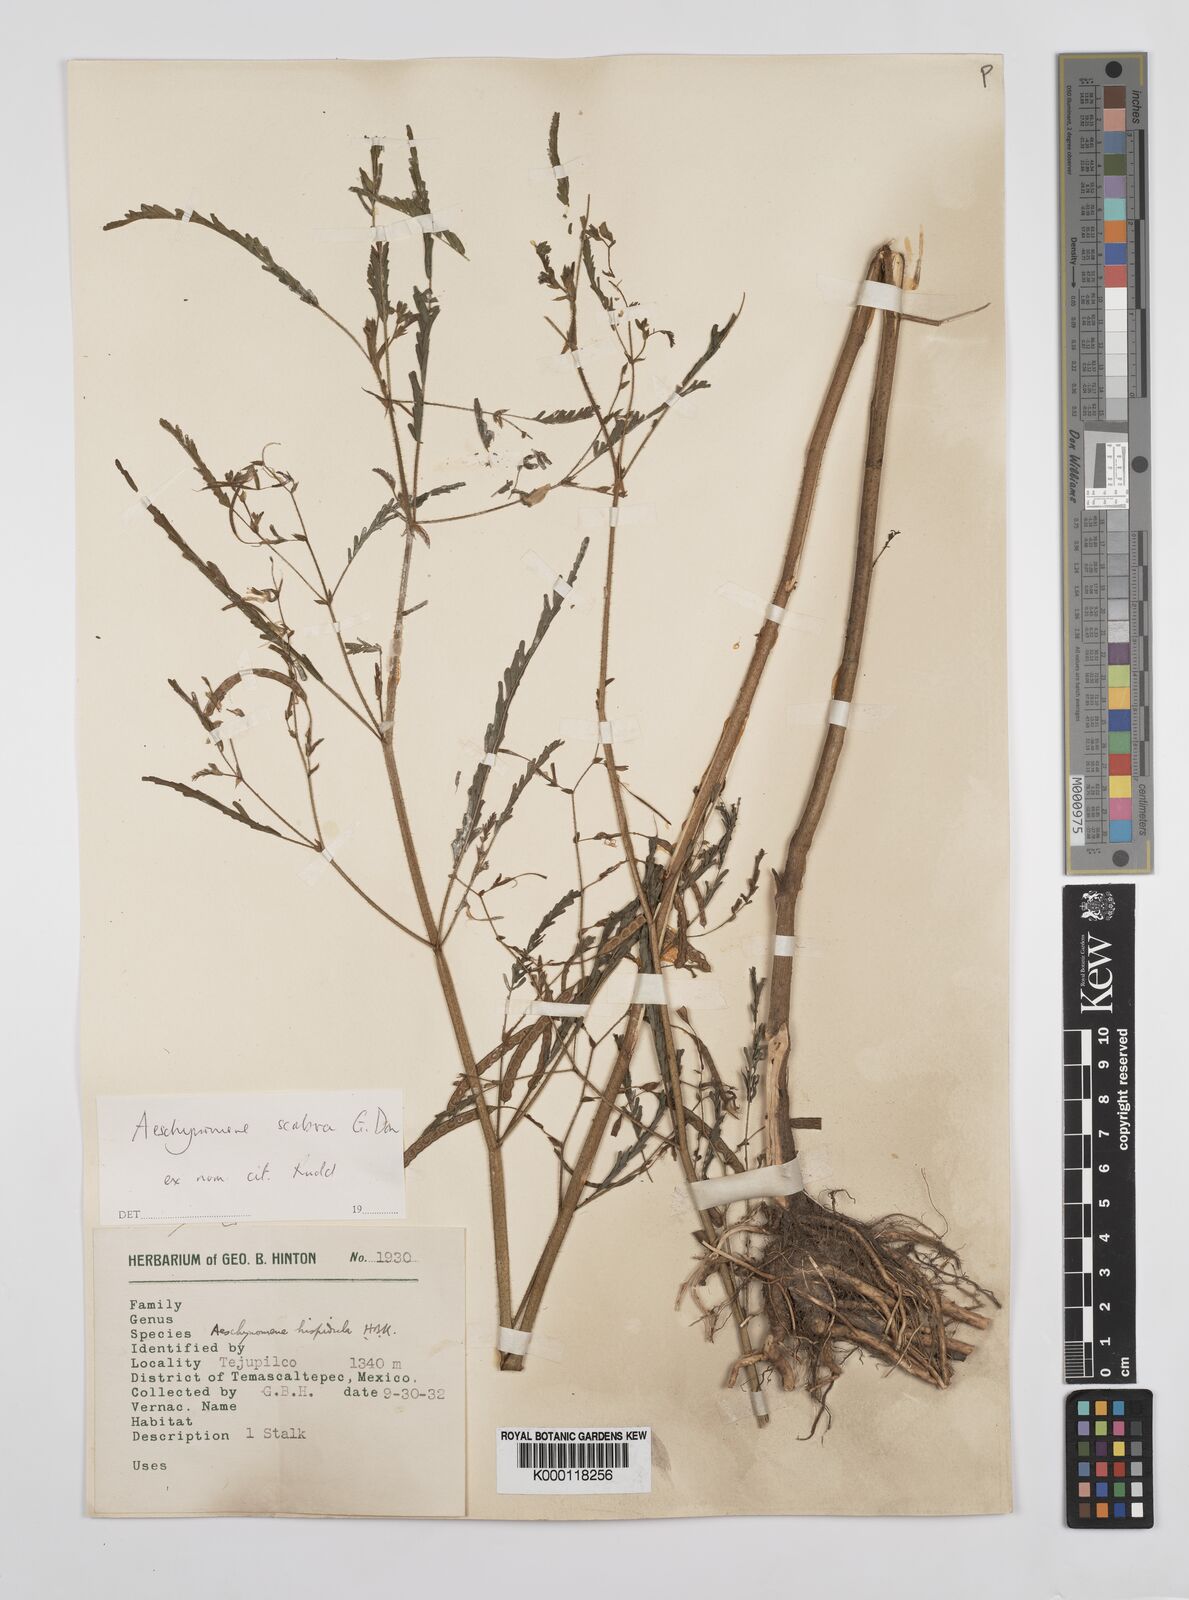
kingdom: Plantae
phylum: Tracheophyta
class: Magnoliopsida
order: Fabales
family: Fabaceae
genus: Aeschynomene
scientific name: Aeschynomene scabra
